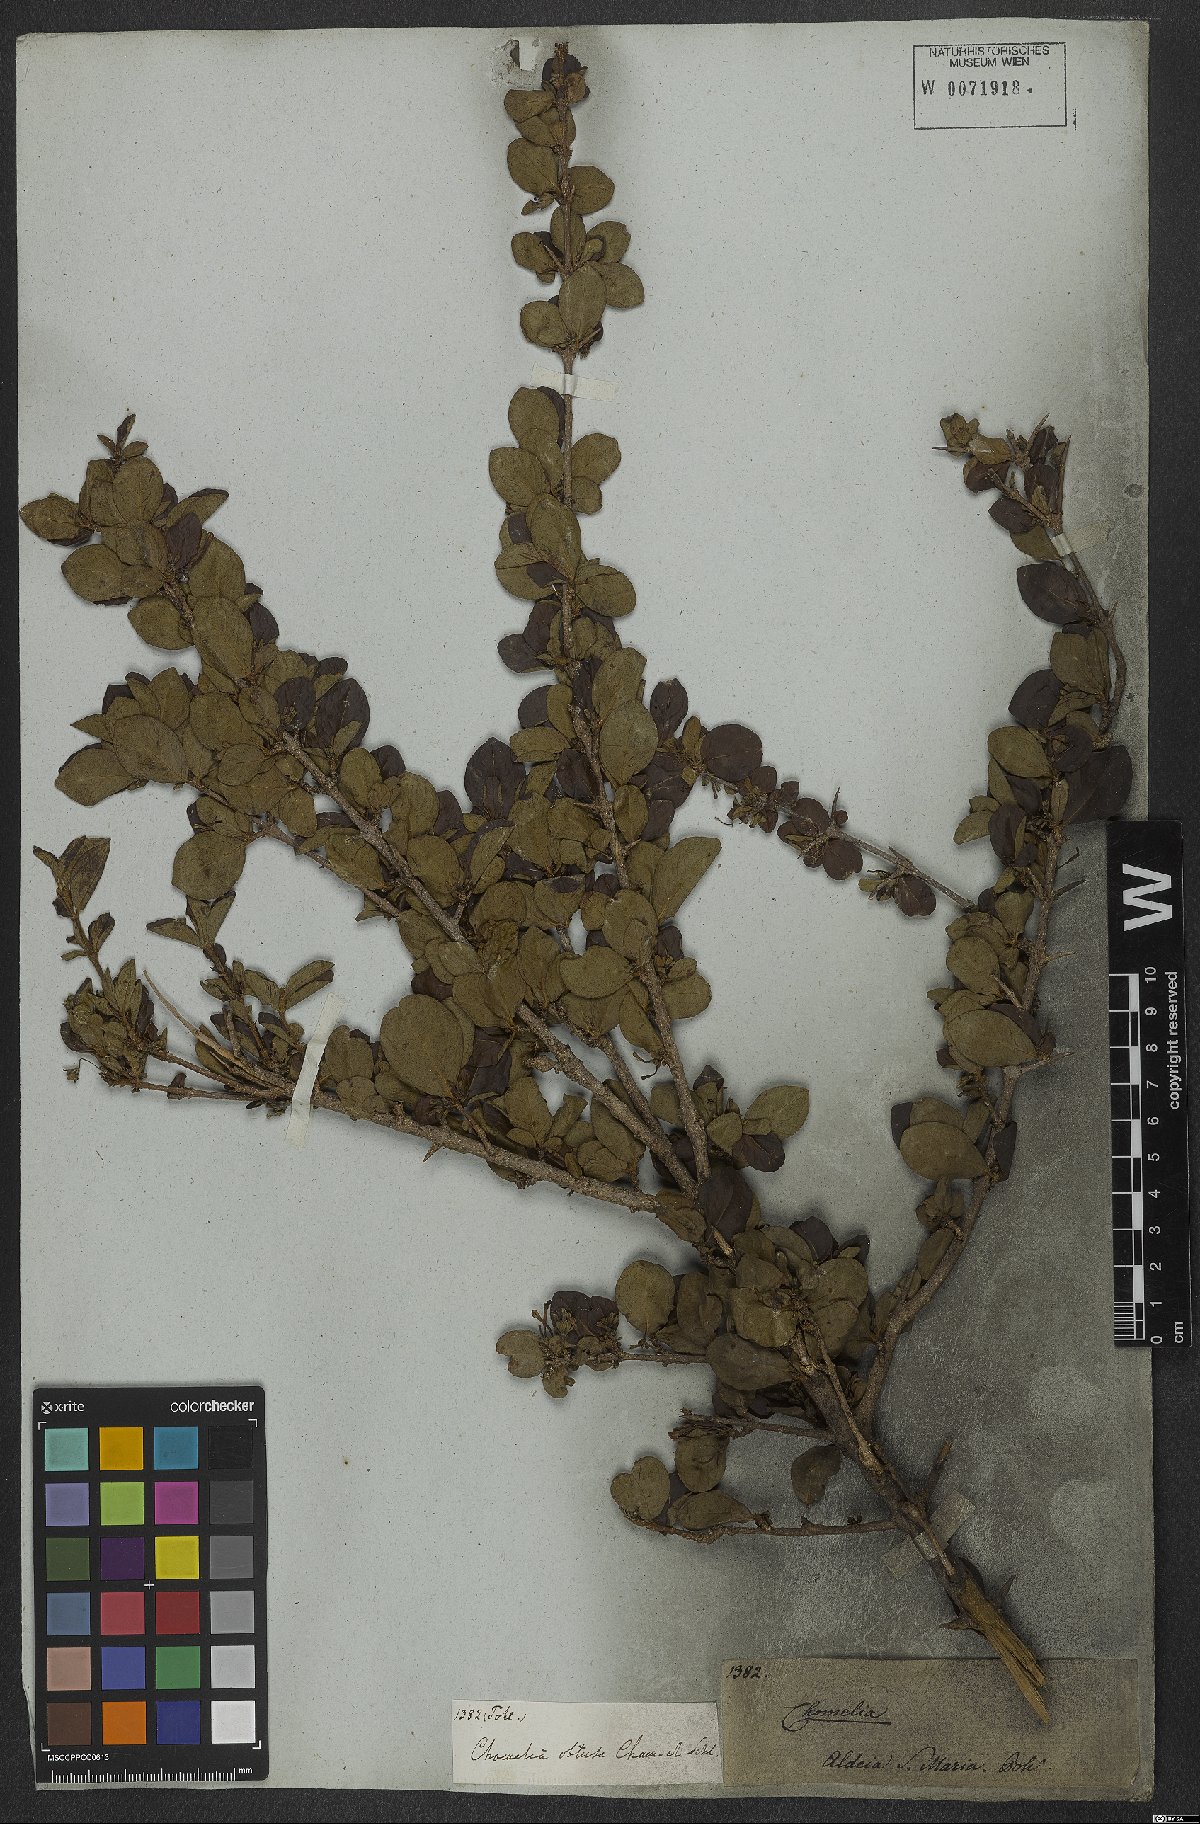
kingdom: Plantae
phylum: Tracheophyta
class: Magnoliopsida
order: Gentianales
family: Rubiaceae
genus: Chomelia
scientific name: Chomelia obtusa
